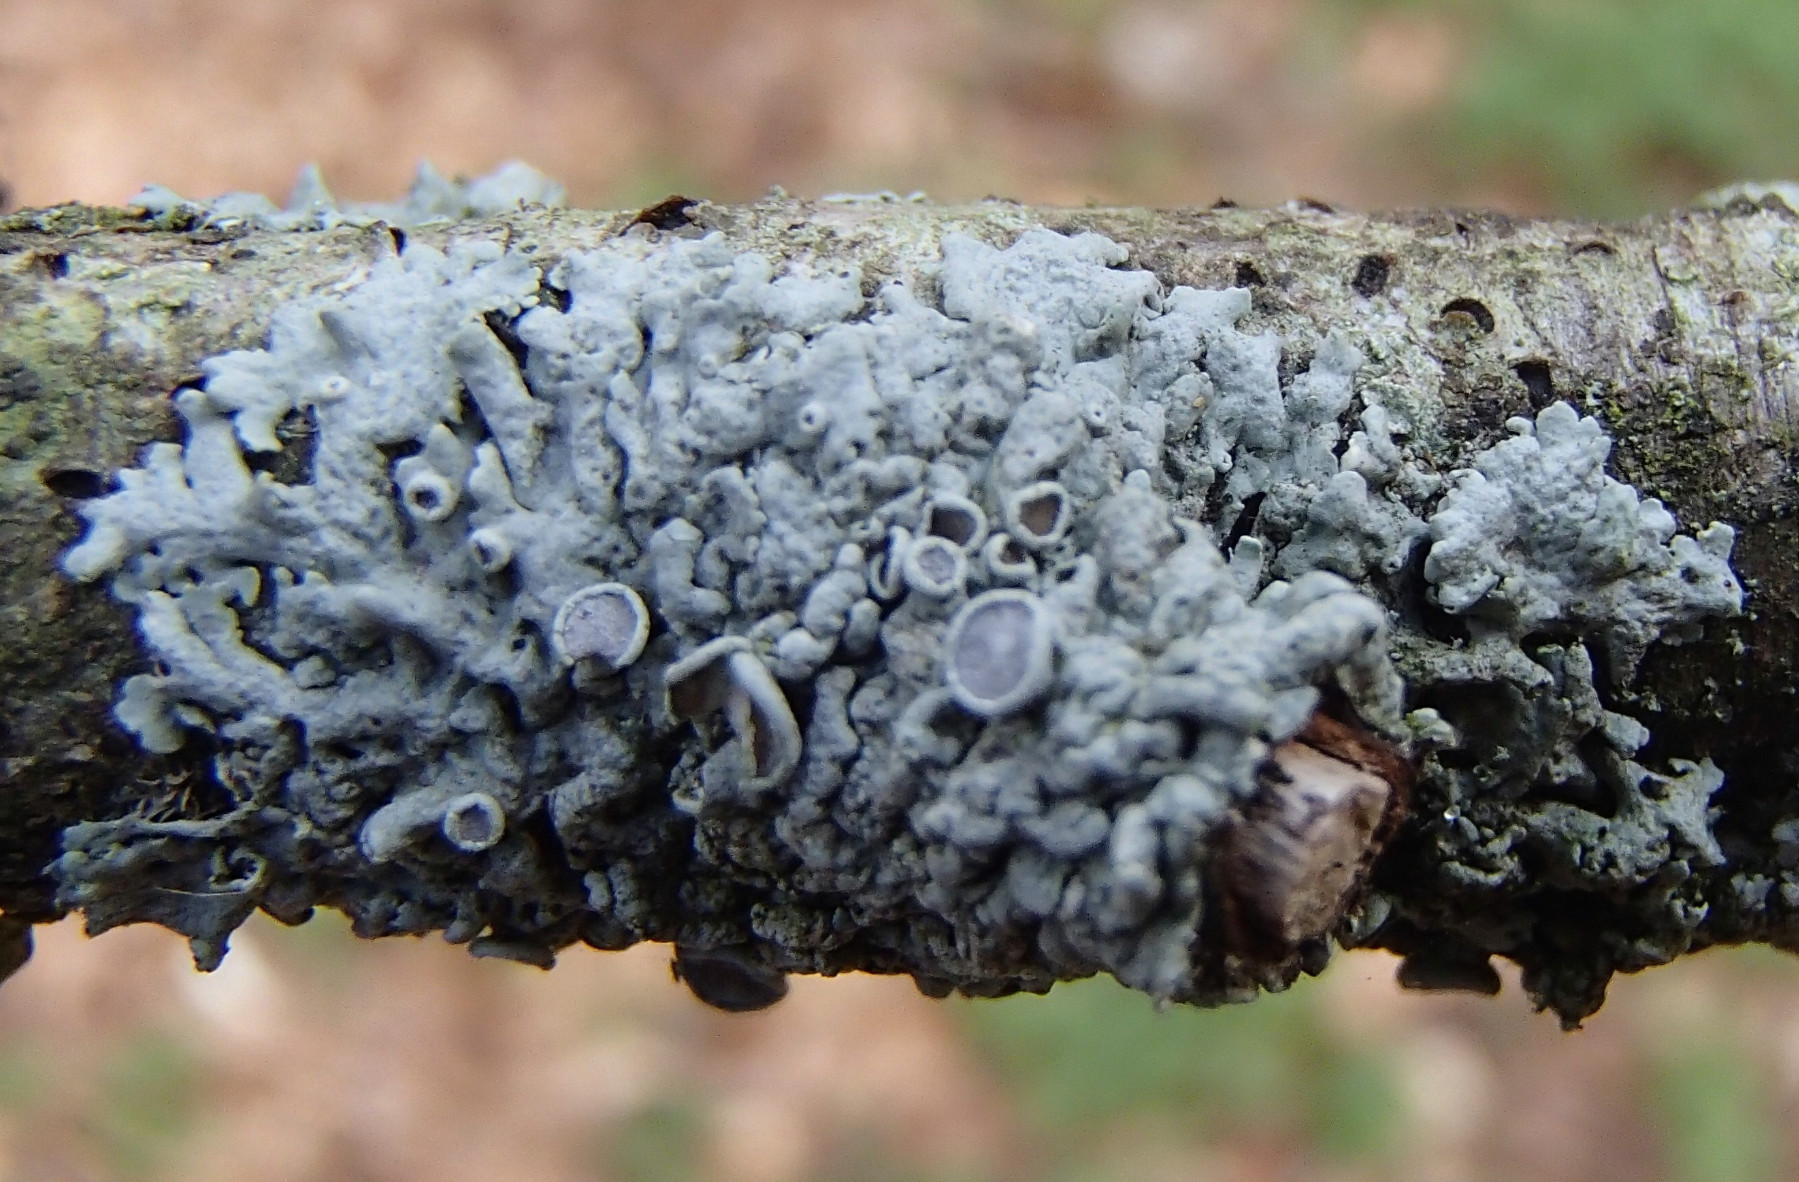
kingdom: Fungi
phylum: Ascomycota
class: Lecanoromycetes
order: Caliciales
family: Physciaceae
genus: Physcia
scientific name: Physcia aipolia
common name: hvidprikket rosetlav
